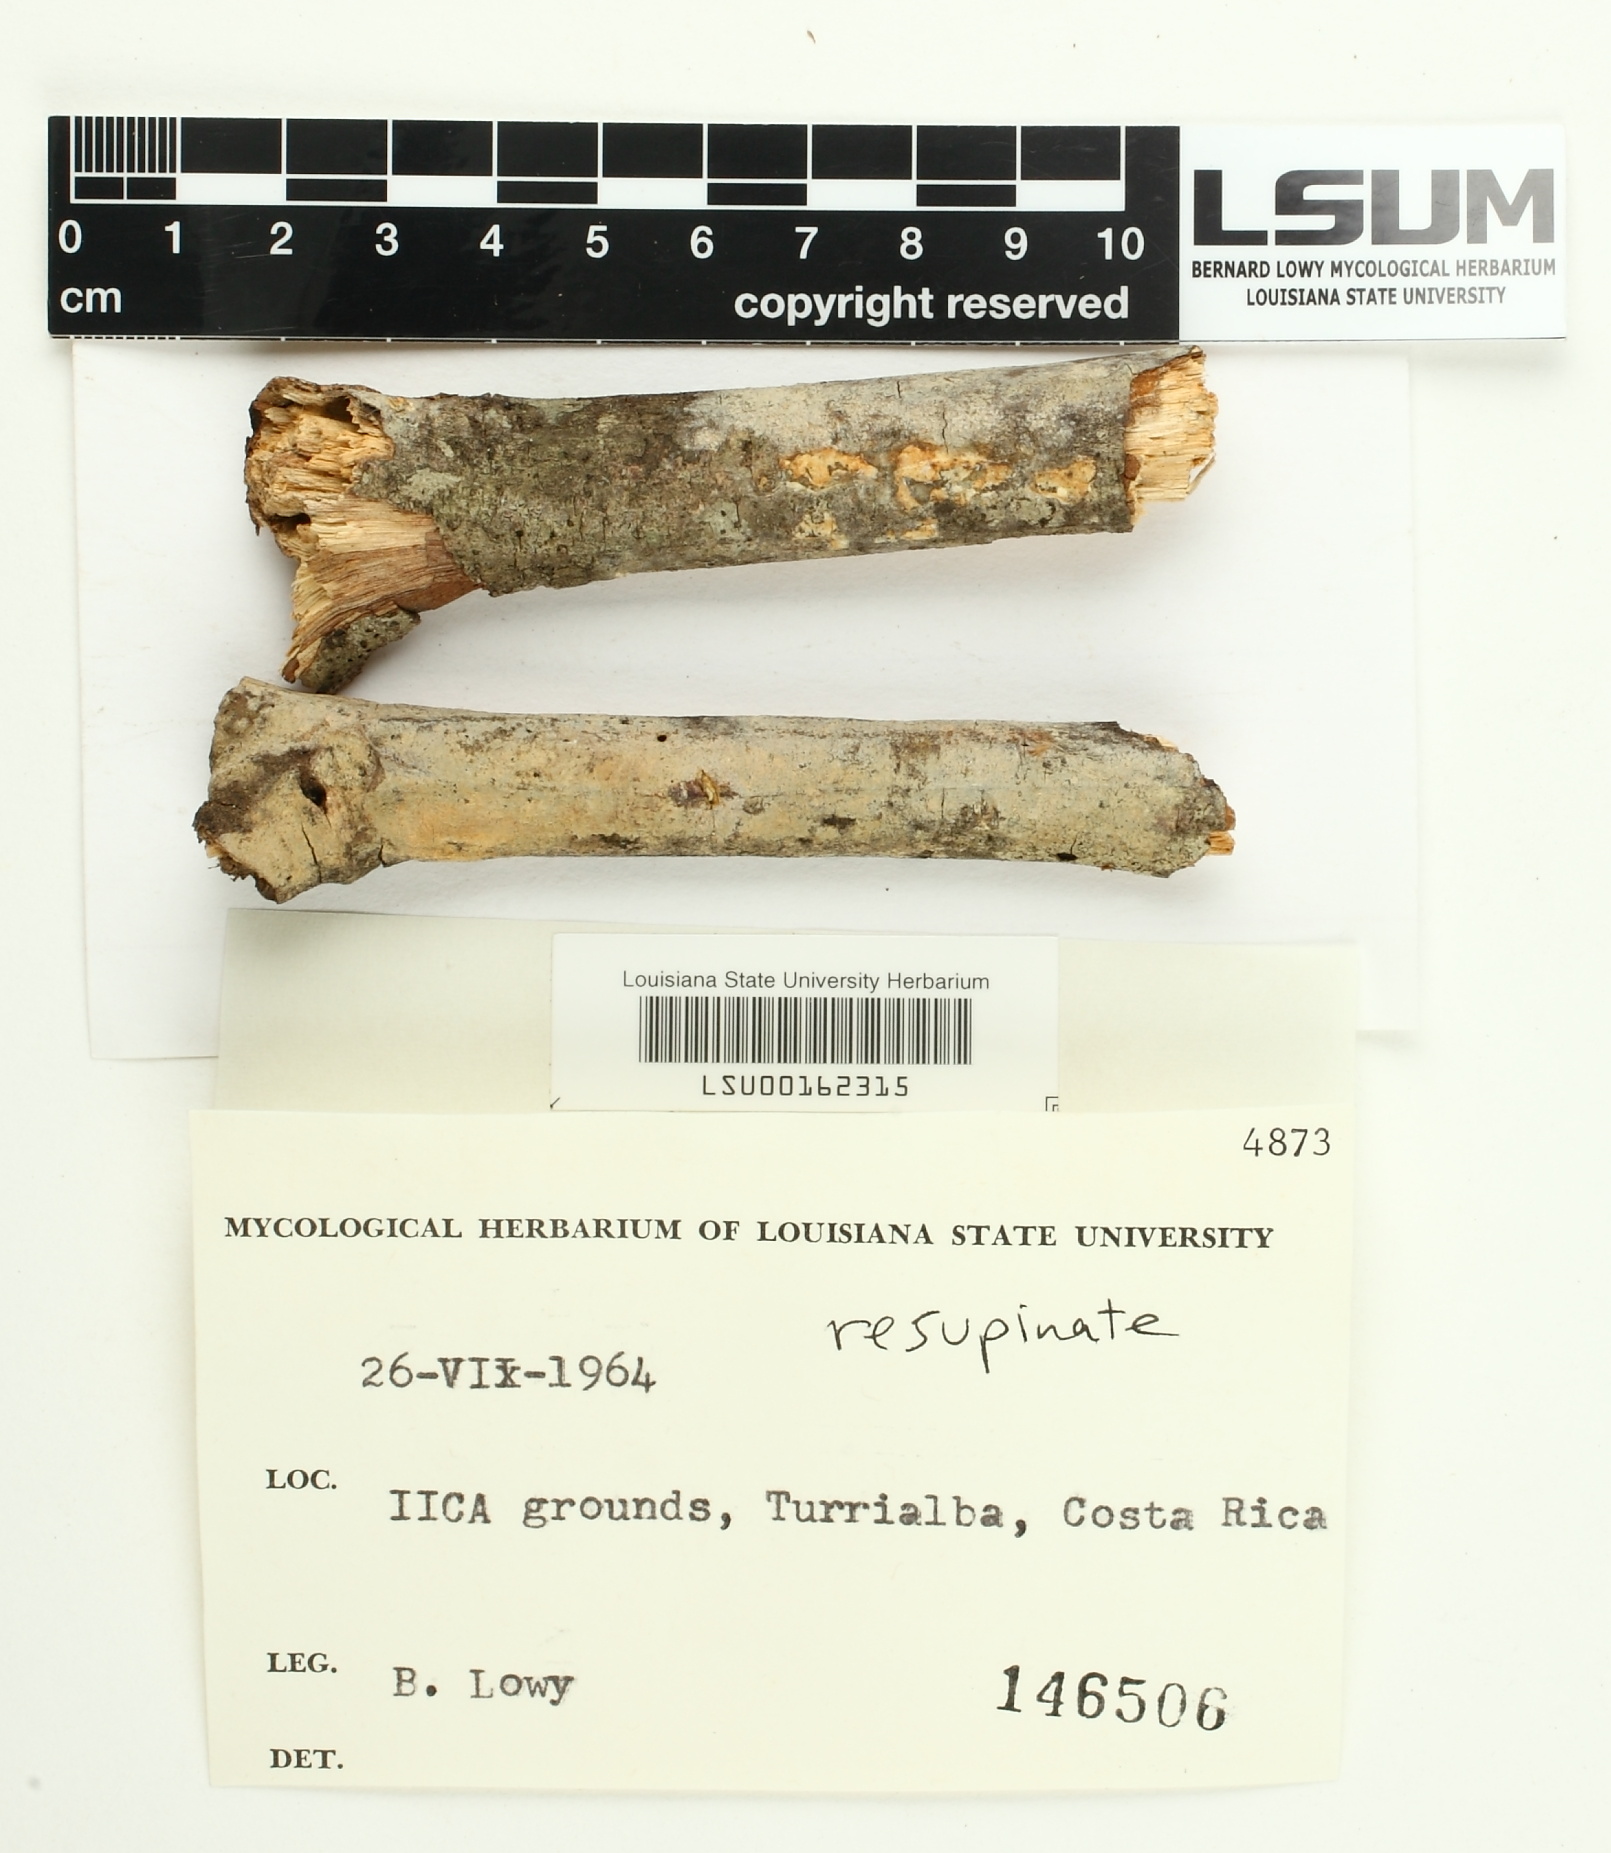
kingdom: Fungi
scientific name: Fungi
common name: Fungi
